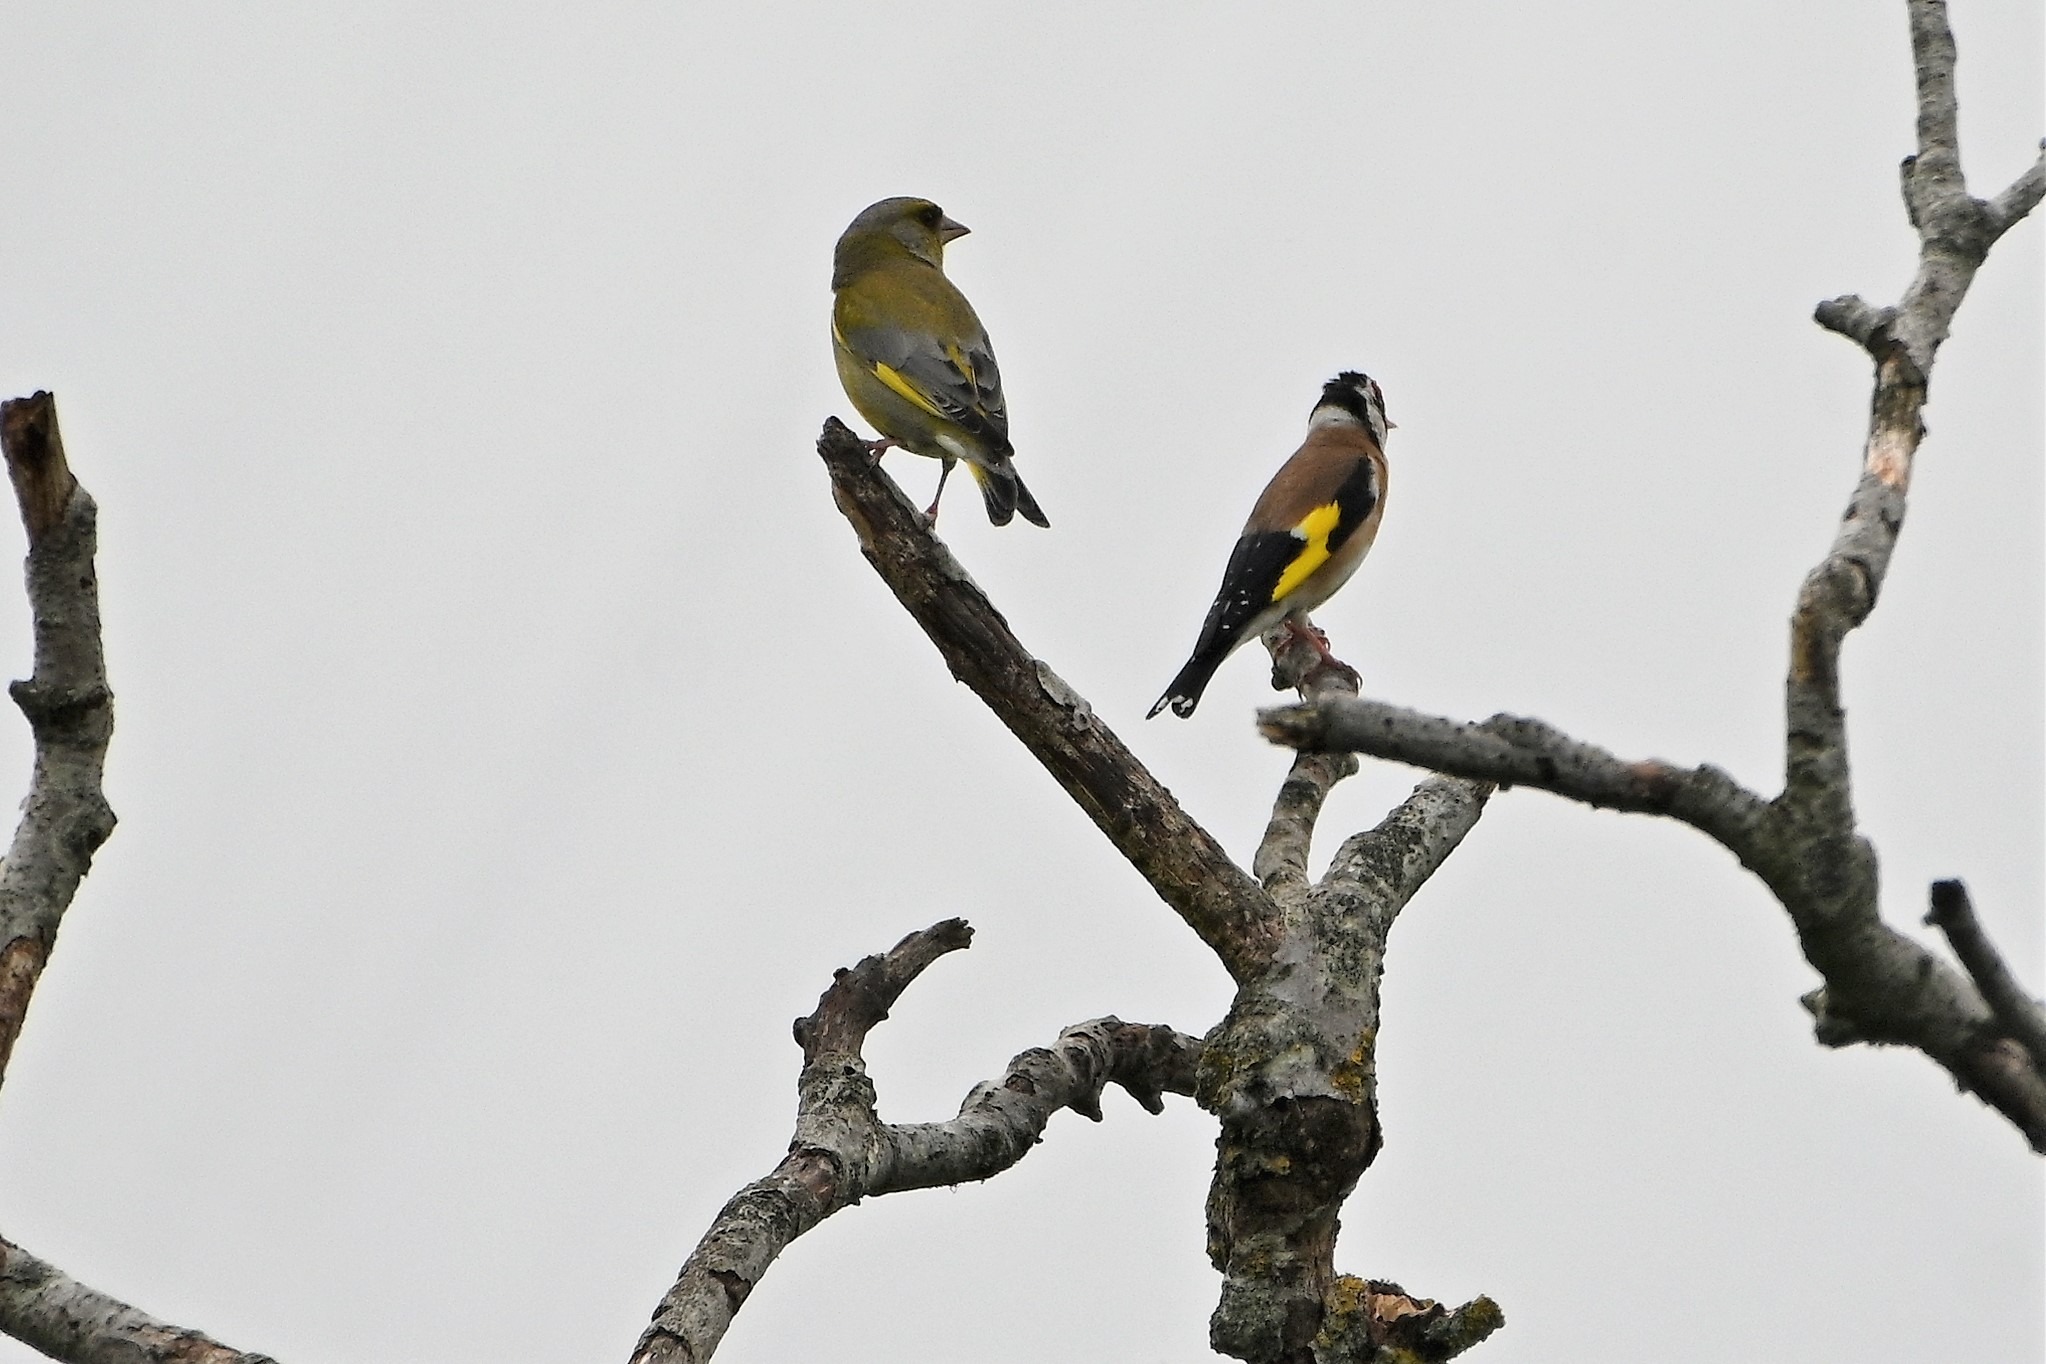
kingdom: Animalia
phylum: Chordata
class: Aves
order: Passeriformes
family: Fringillidae
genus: Carduelis
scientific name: Carduelis carduelis
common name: Stillits
